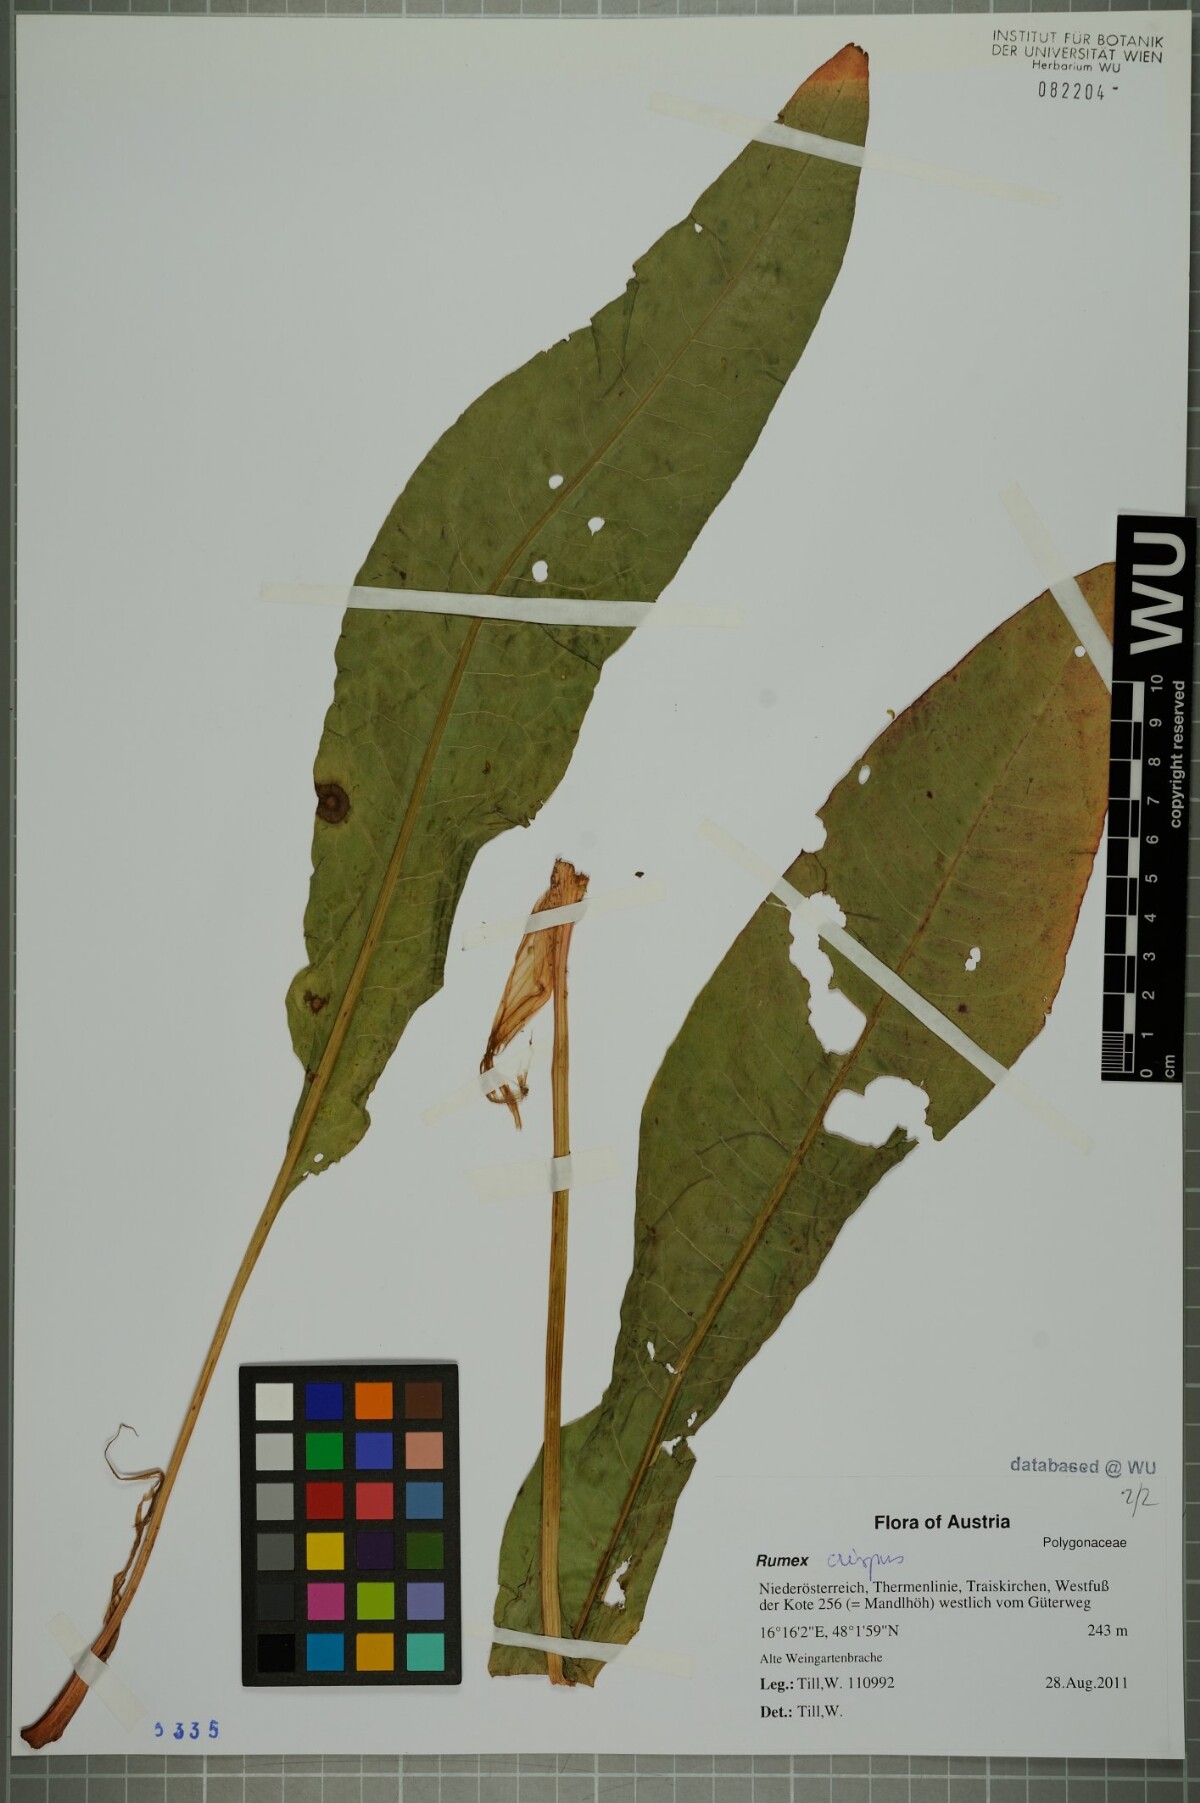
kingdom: Plantae
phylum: Tracheophyta
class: Magnoliopsida
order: Caryophyllales
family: Polygonaceae
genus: Rumex
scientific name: Rumex crispus
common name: Curled dock
